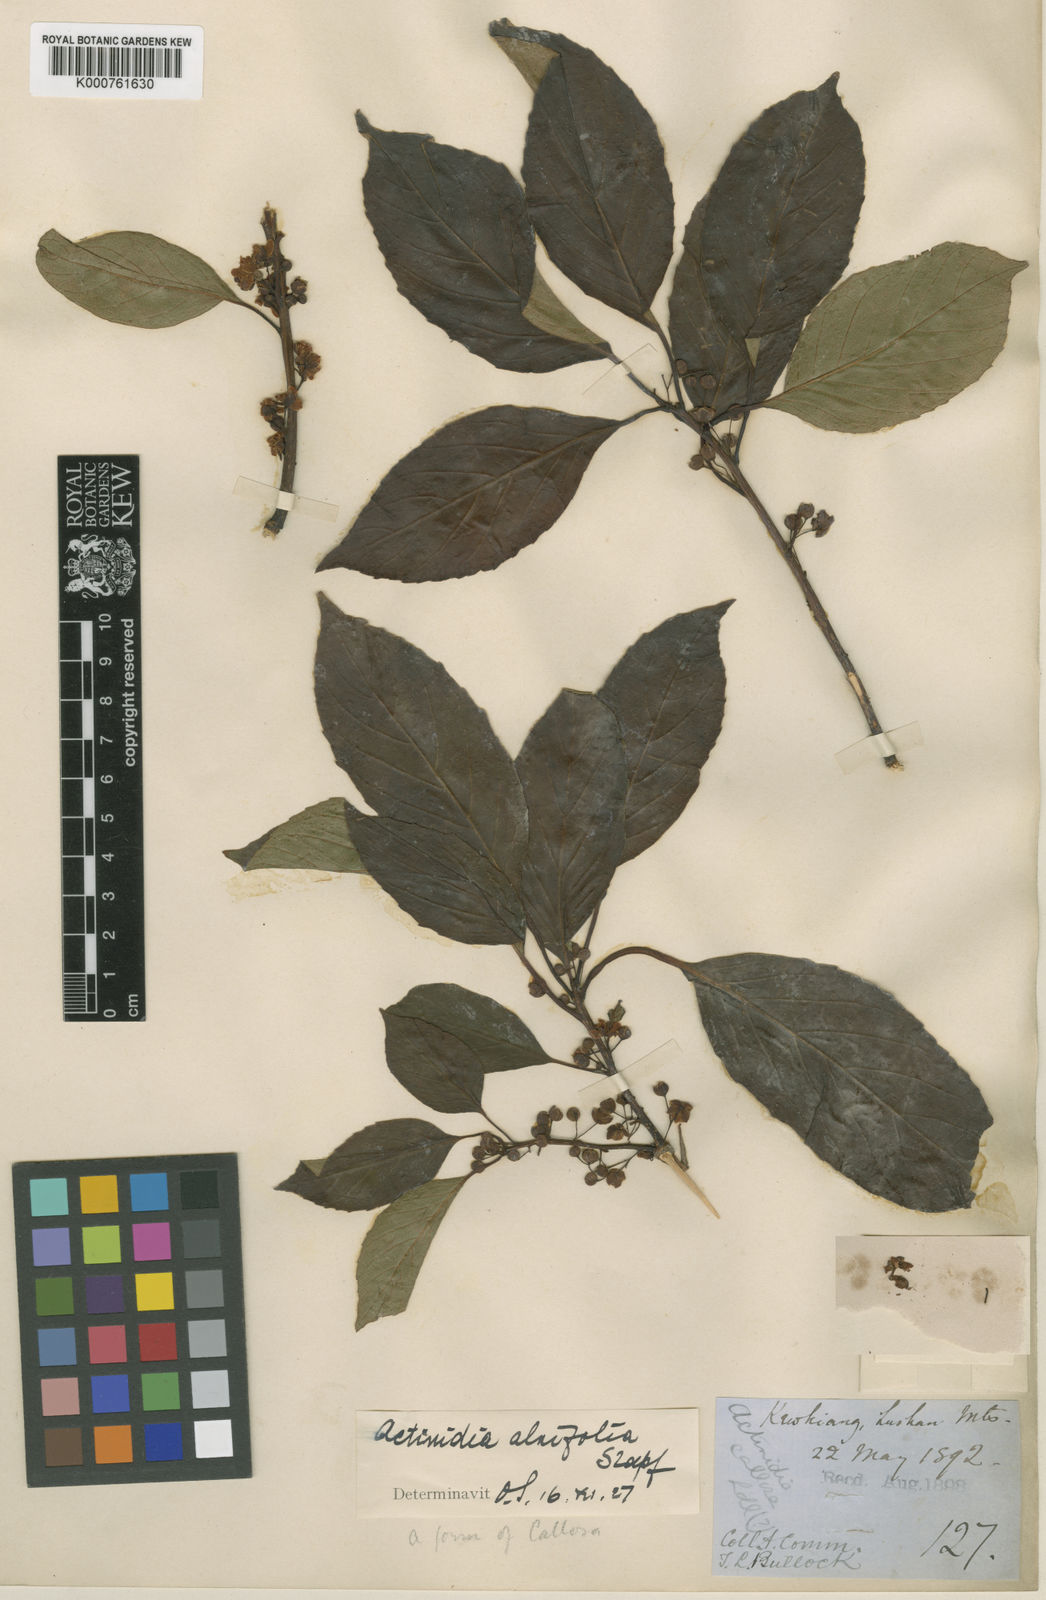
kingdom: Plantae
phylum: Tracheophyta
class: Magnoliopsida
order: Ericales
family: Actinidiaceae
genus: Actinidia
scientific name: Actinidia
